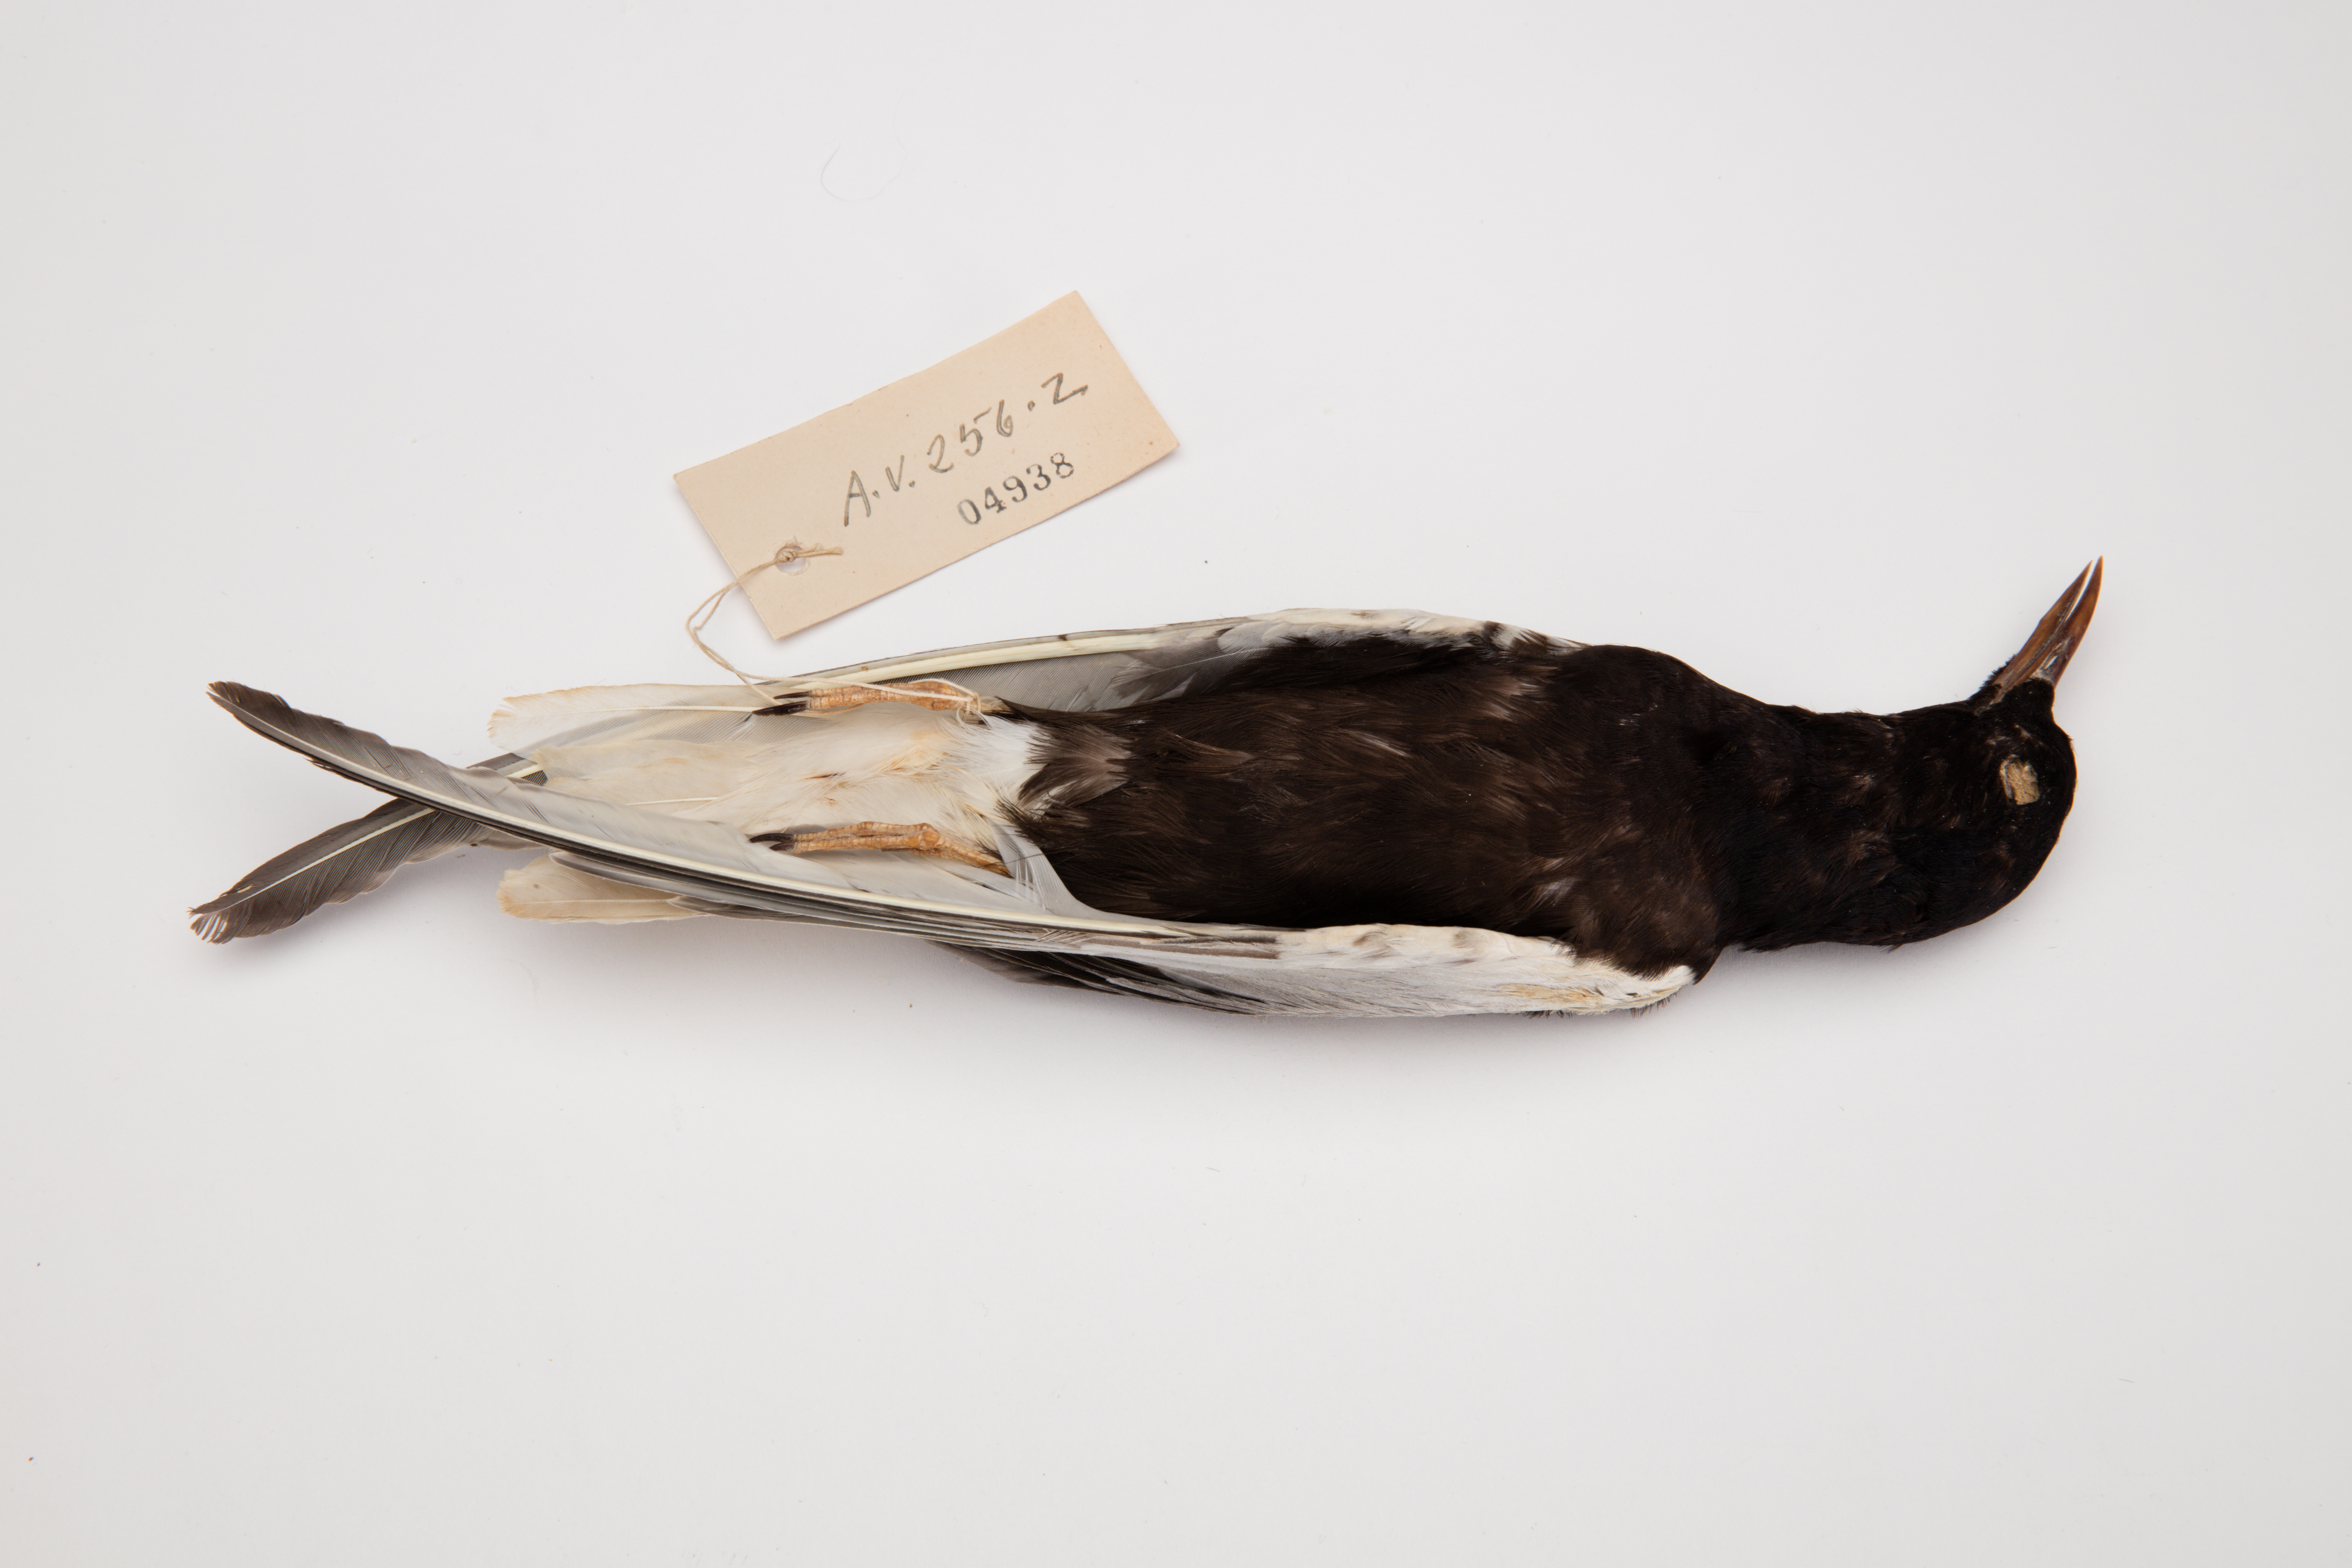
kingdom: Animalia
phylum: Chordata
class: Aves
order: Charadriiformes
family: Laridae
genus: Chlidonias
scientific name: Chlidonias leucopterus
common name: White-winged tern
